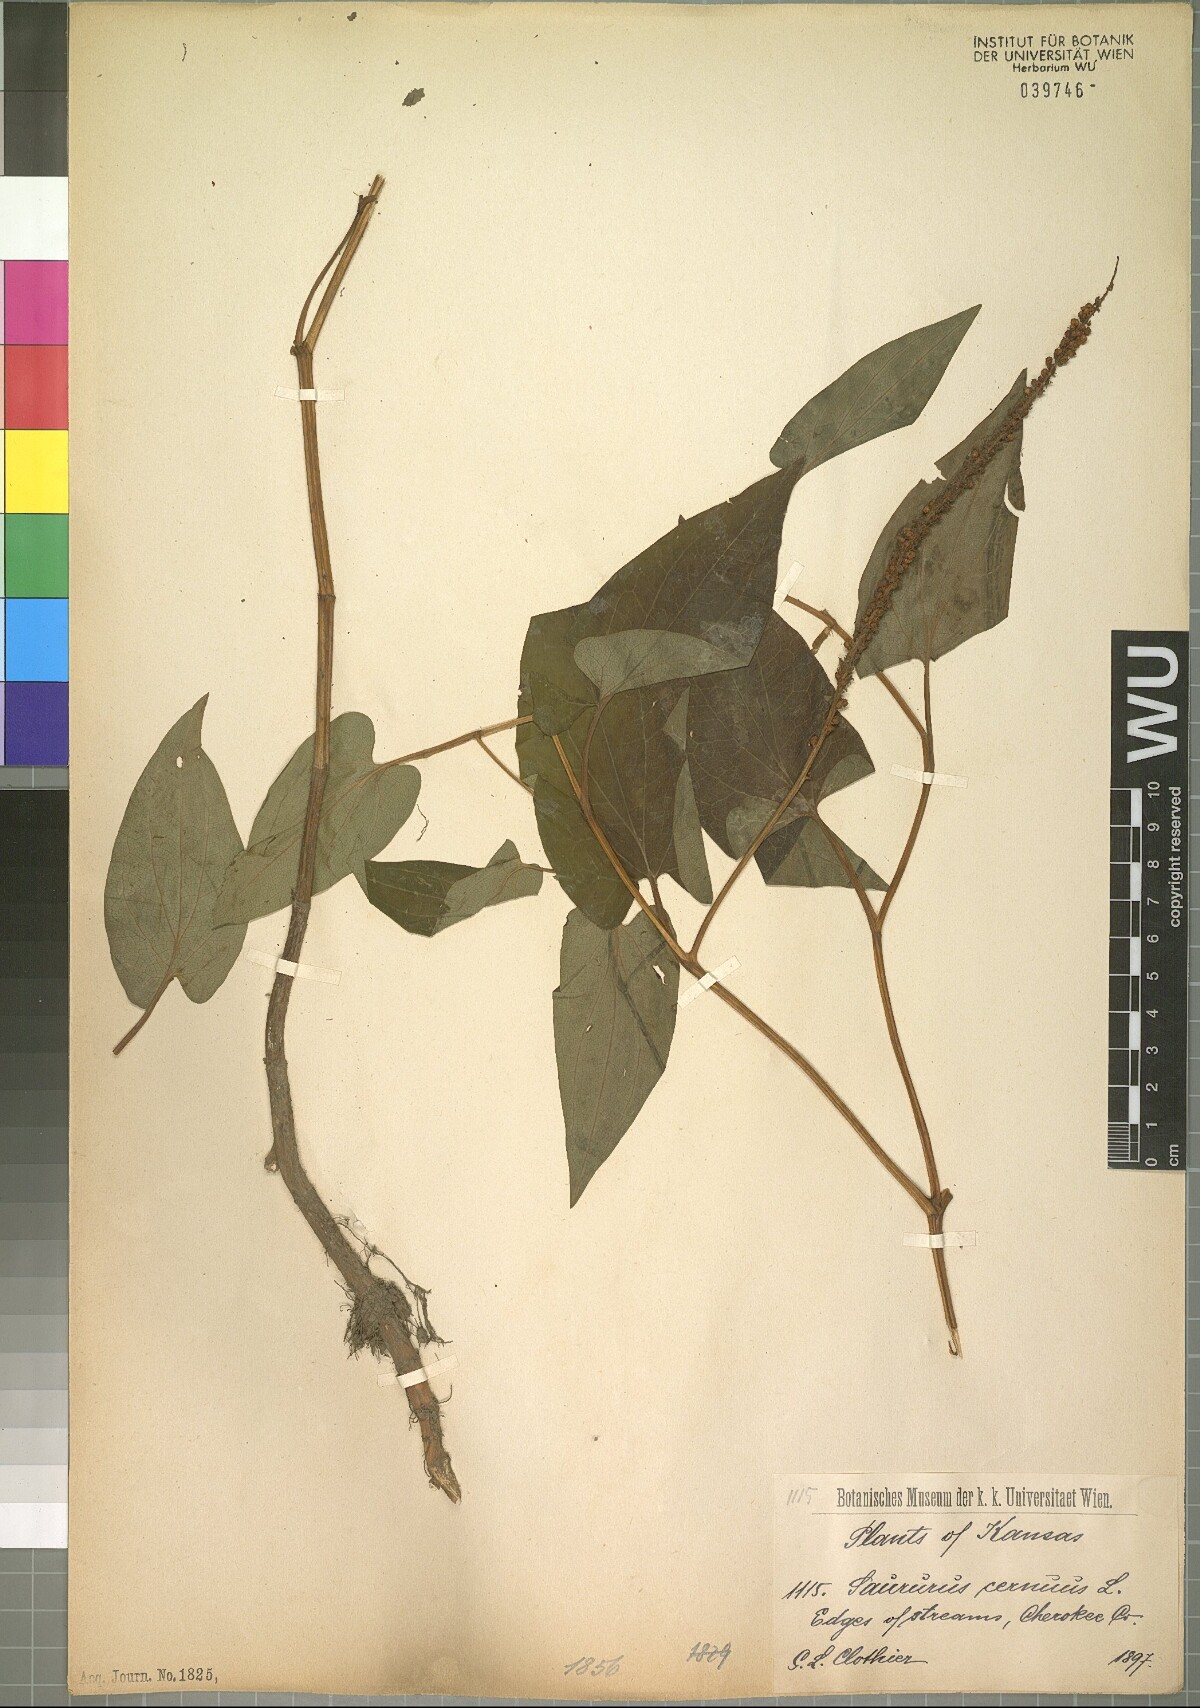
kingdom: Plantae
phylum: Tracheophyta
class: Magnoliopsida
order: Piperales
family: Saururaceae
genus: Saururus
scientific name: Saururus cernuus
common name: Lizard's-tail
